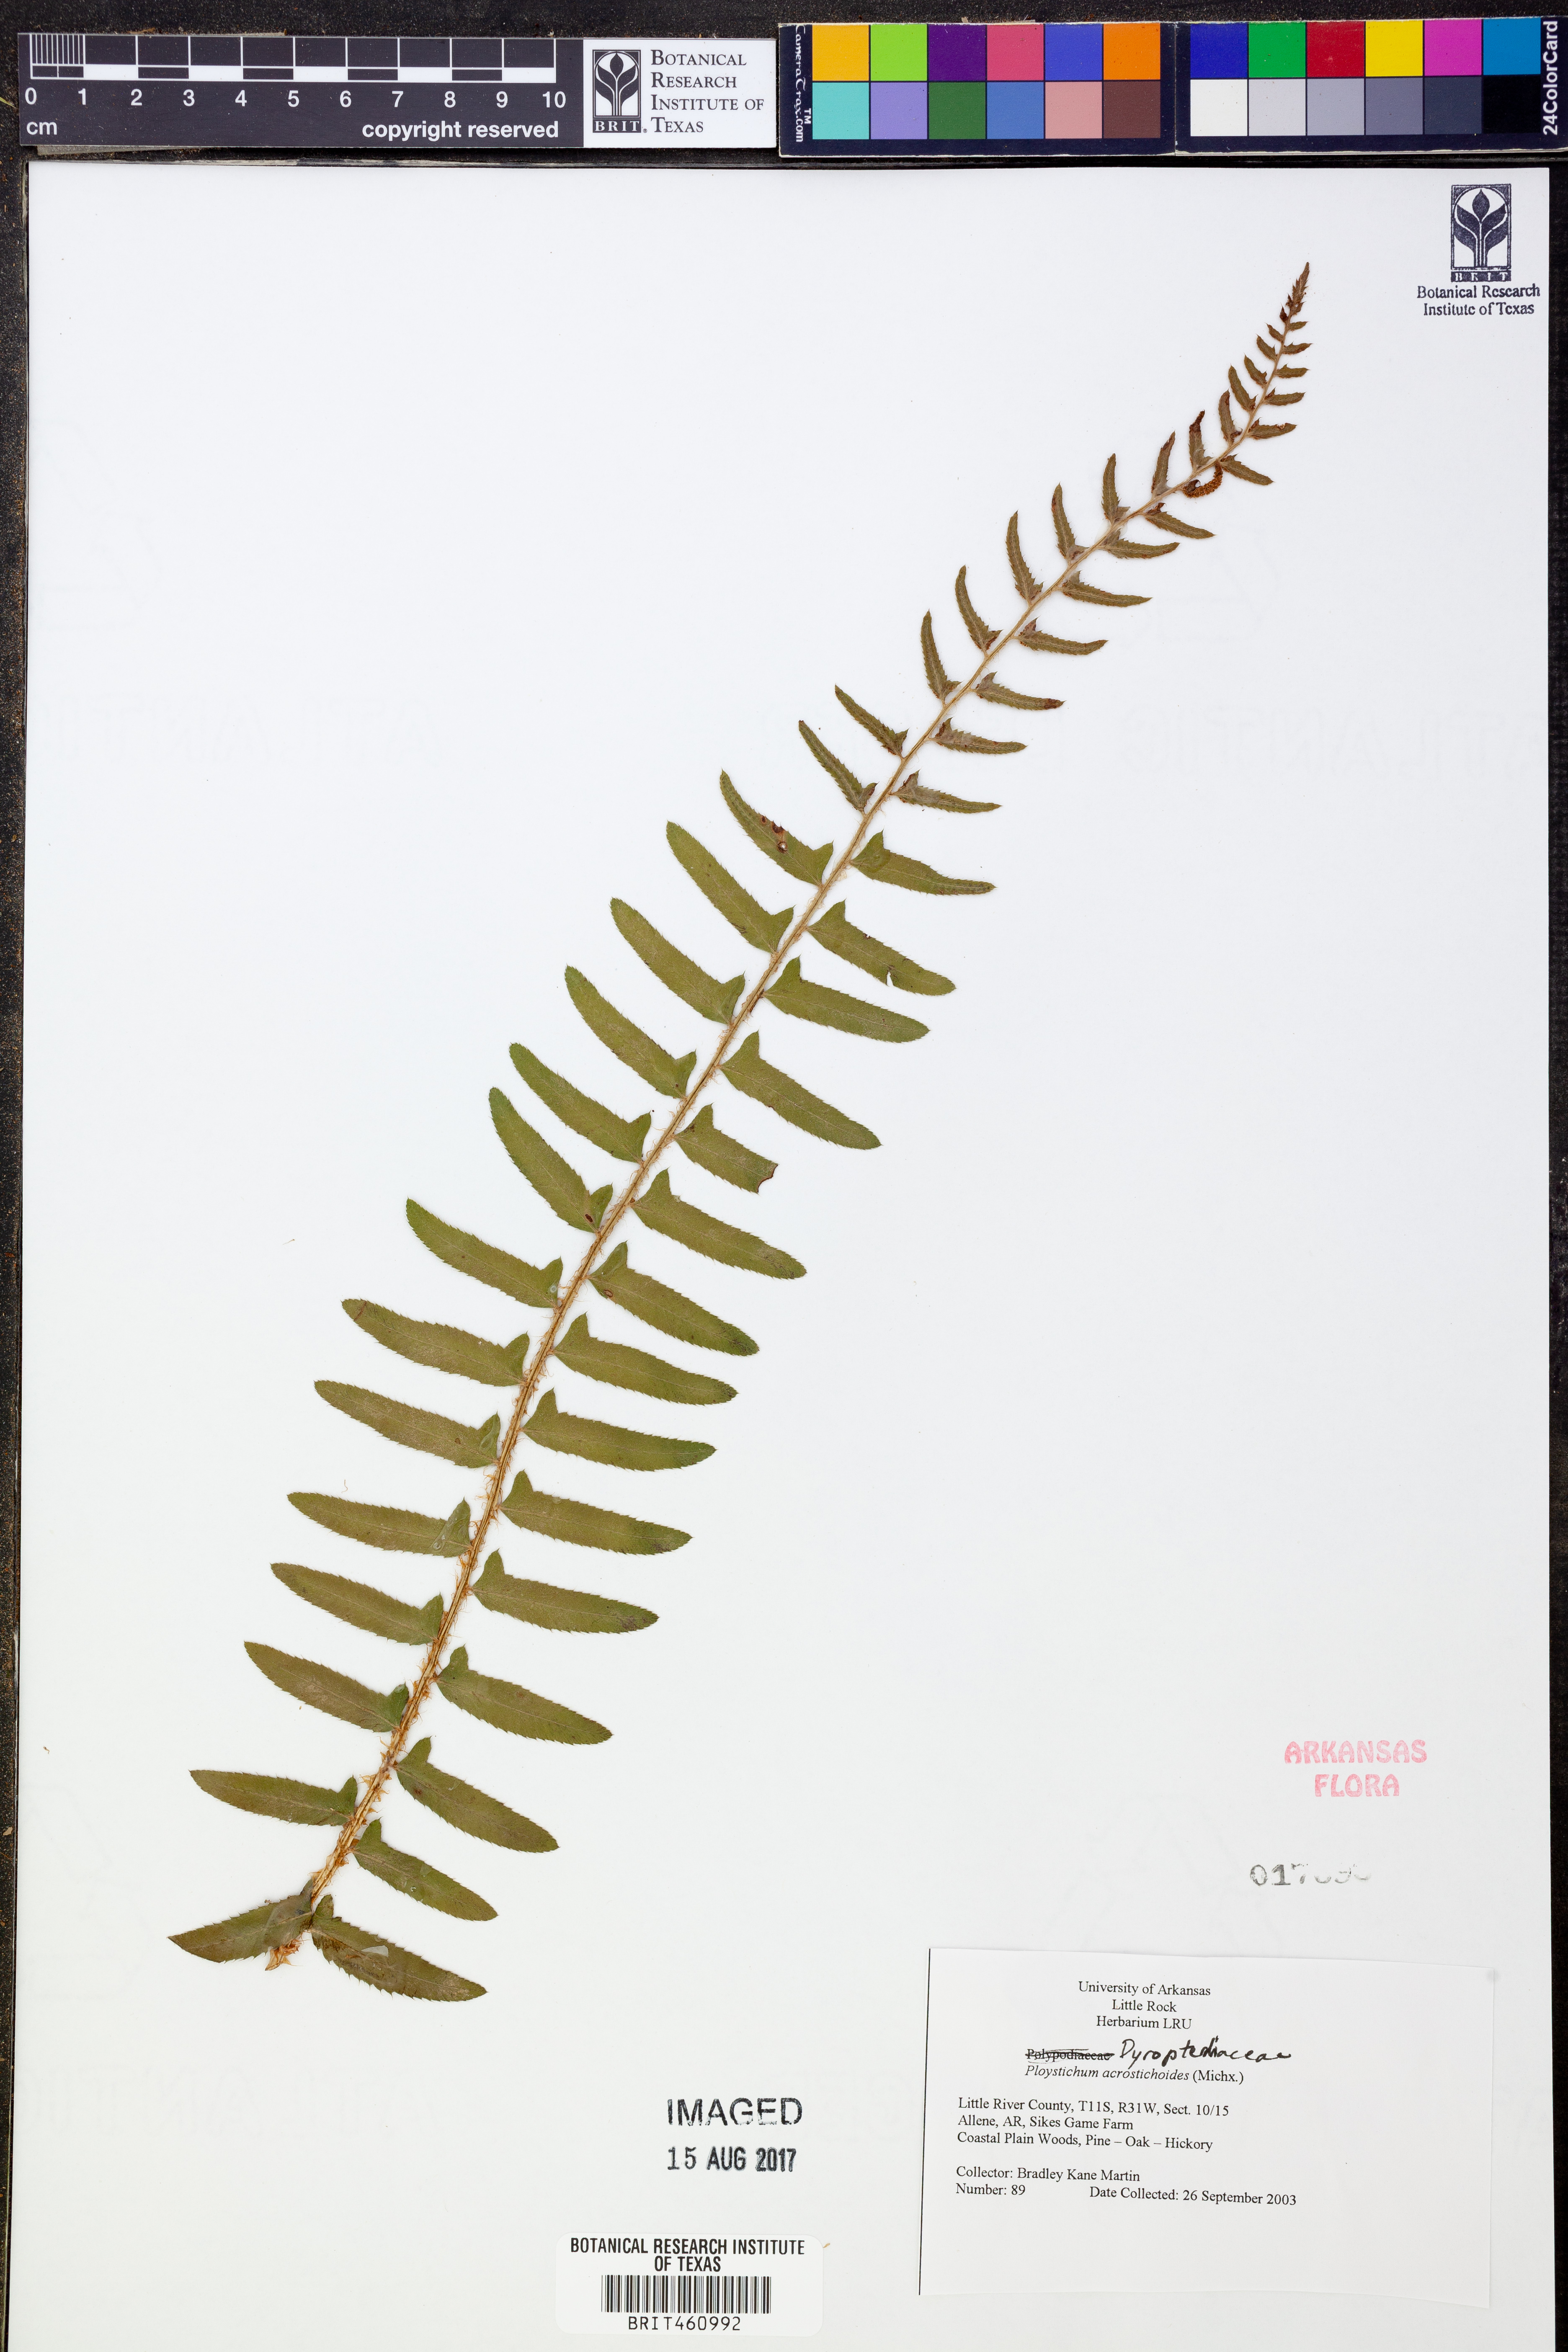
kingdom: Plantae
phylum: Tracheophyta
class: Polypodiopsida
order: Polypodiales
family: Dryopteridaceae
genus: Polystichum
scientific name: Polystichum acrostichoides
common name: Christmas fern
